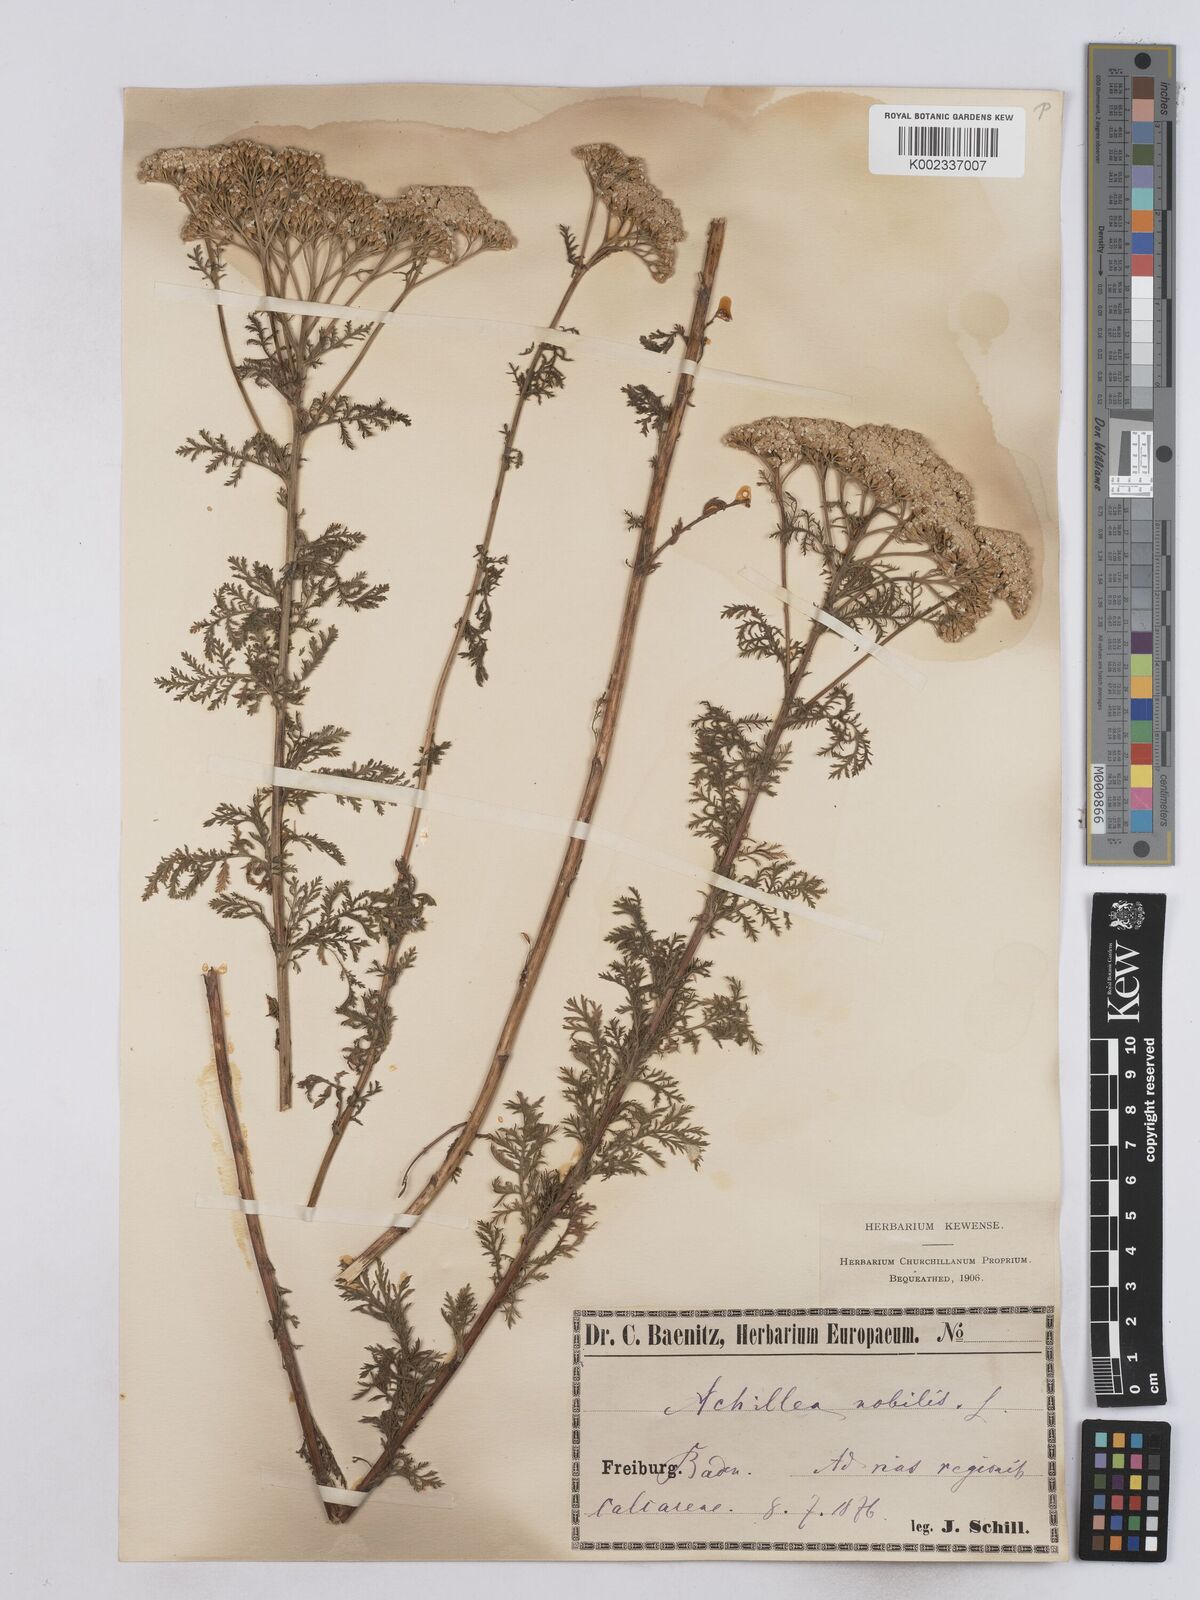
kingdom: Plantae
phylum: Tracheophyta
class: Magnoliopsida
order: Asterales
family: Asteraceae
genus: Achillea
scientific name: Achillea nobilis
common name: Noble yarrow
